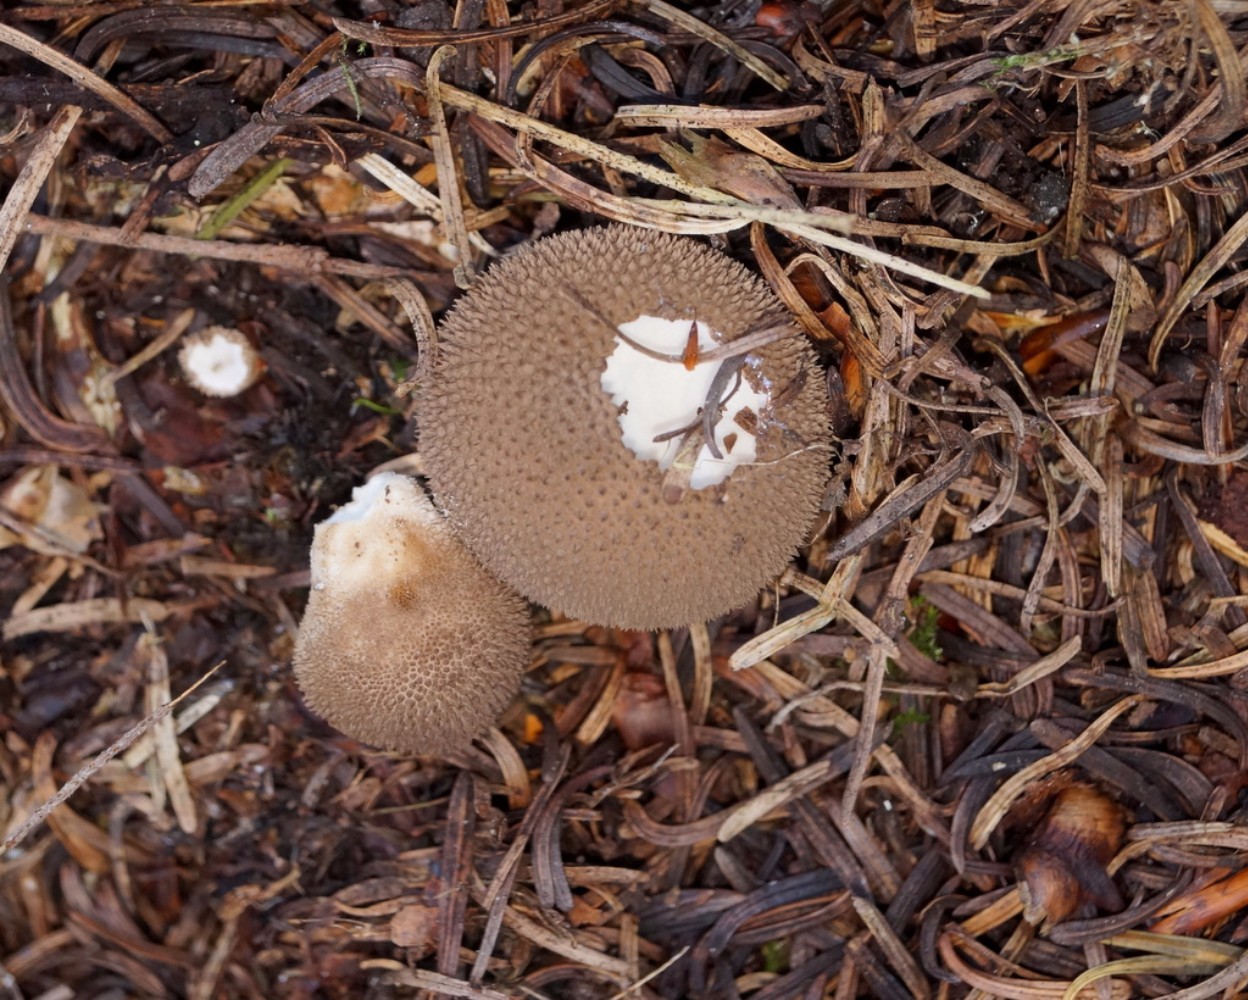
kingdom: Fungi
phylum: Basidiomycota
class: Agaricomycetes
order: Agaricales
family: Lycoperdaceae
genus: Lycoperdon
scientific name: Lycoperdon nigrescens
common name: sortagtig støvbold
